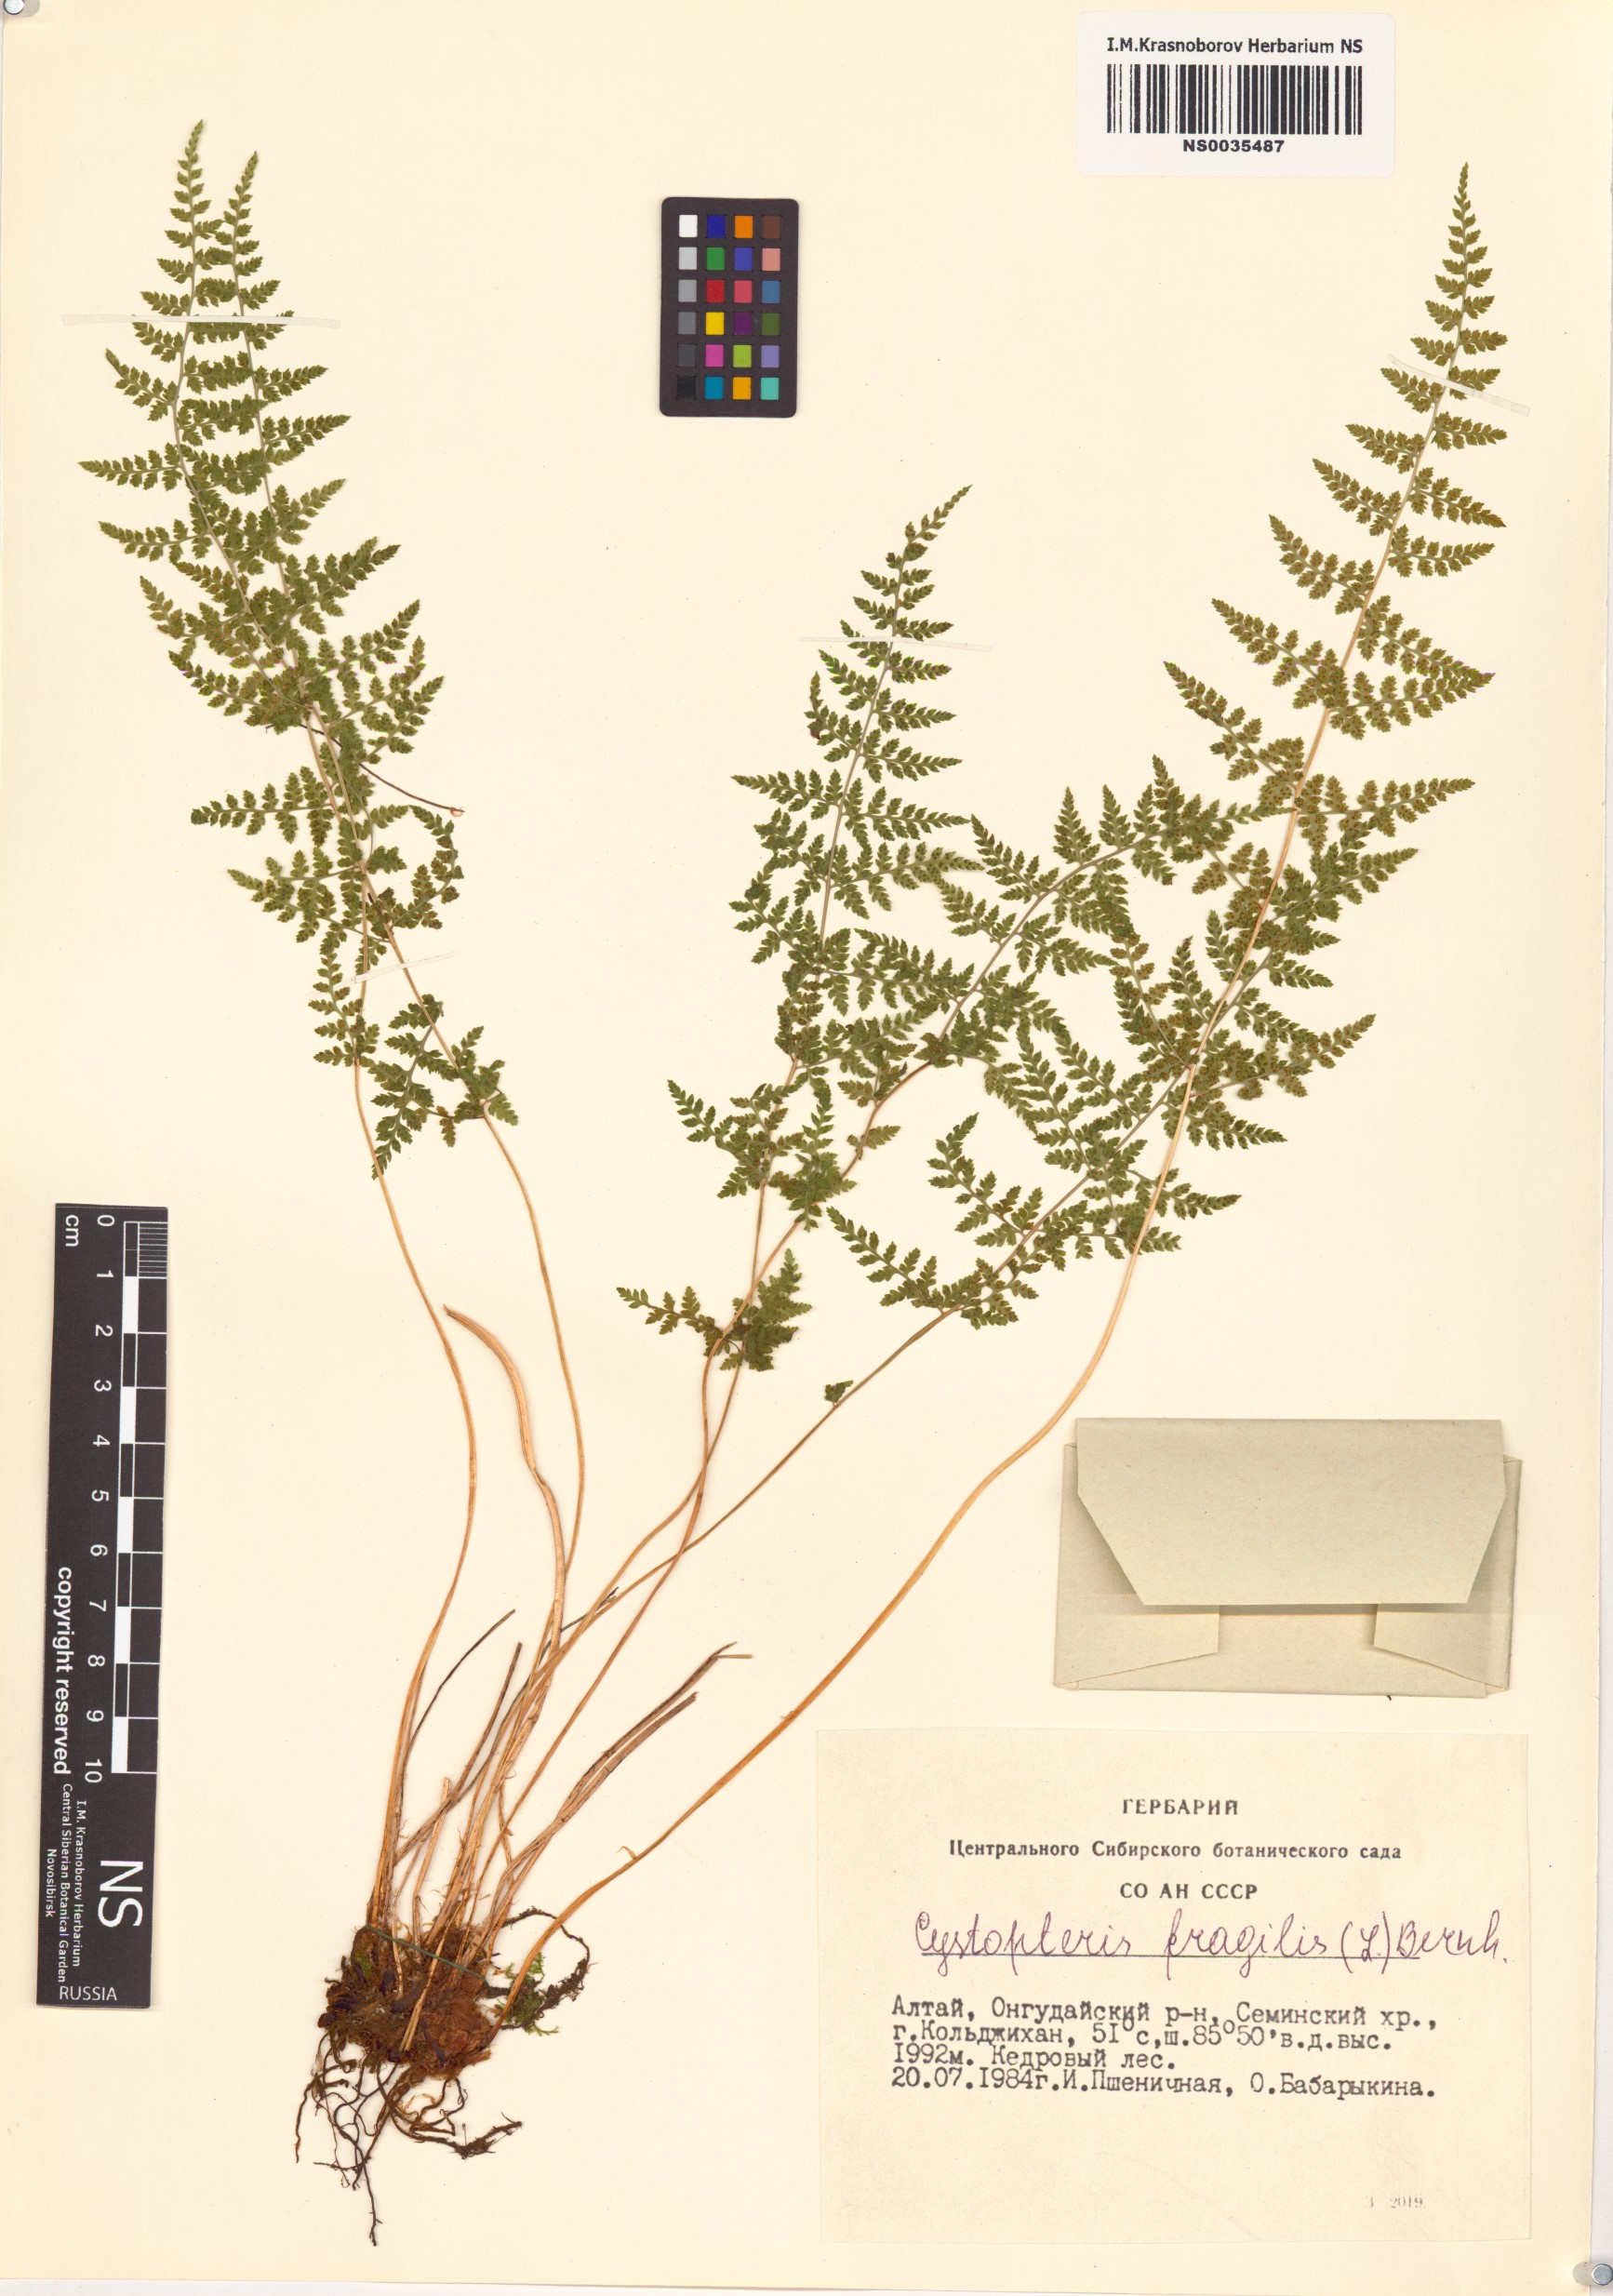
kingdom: Plantae
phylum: Tracheophyta
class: Polypodiopsida
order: Polypodiales
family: Cystopteridaceae
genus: Cystopteris
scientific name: Cystopteris fragilis
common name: Brittle bladder fern
